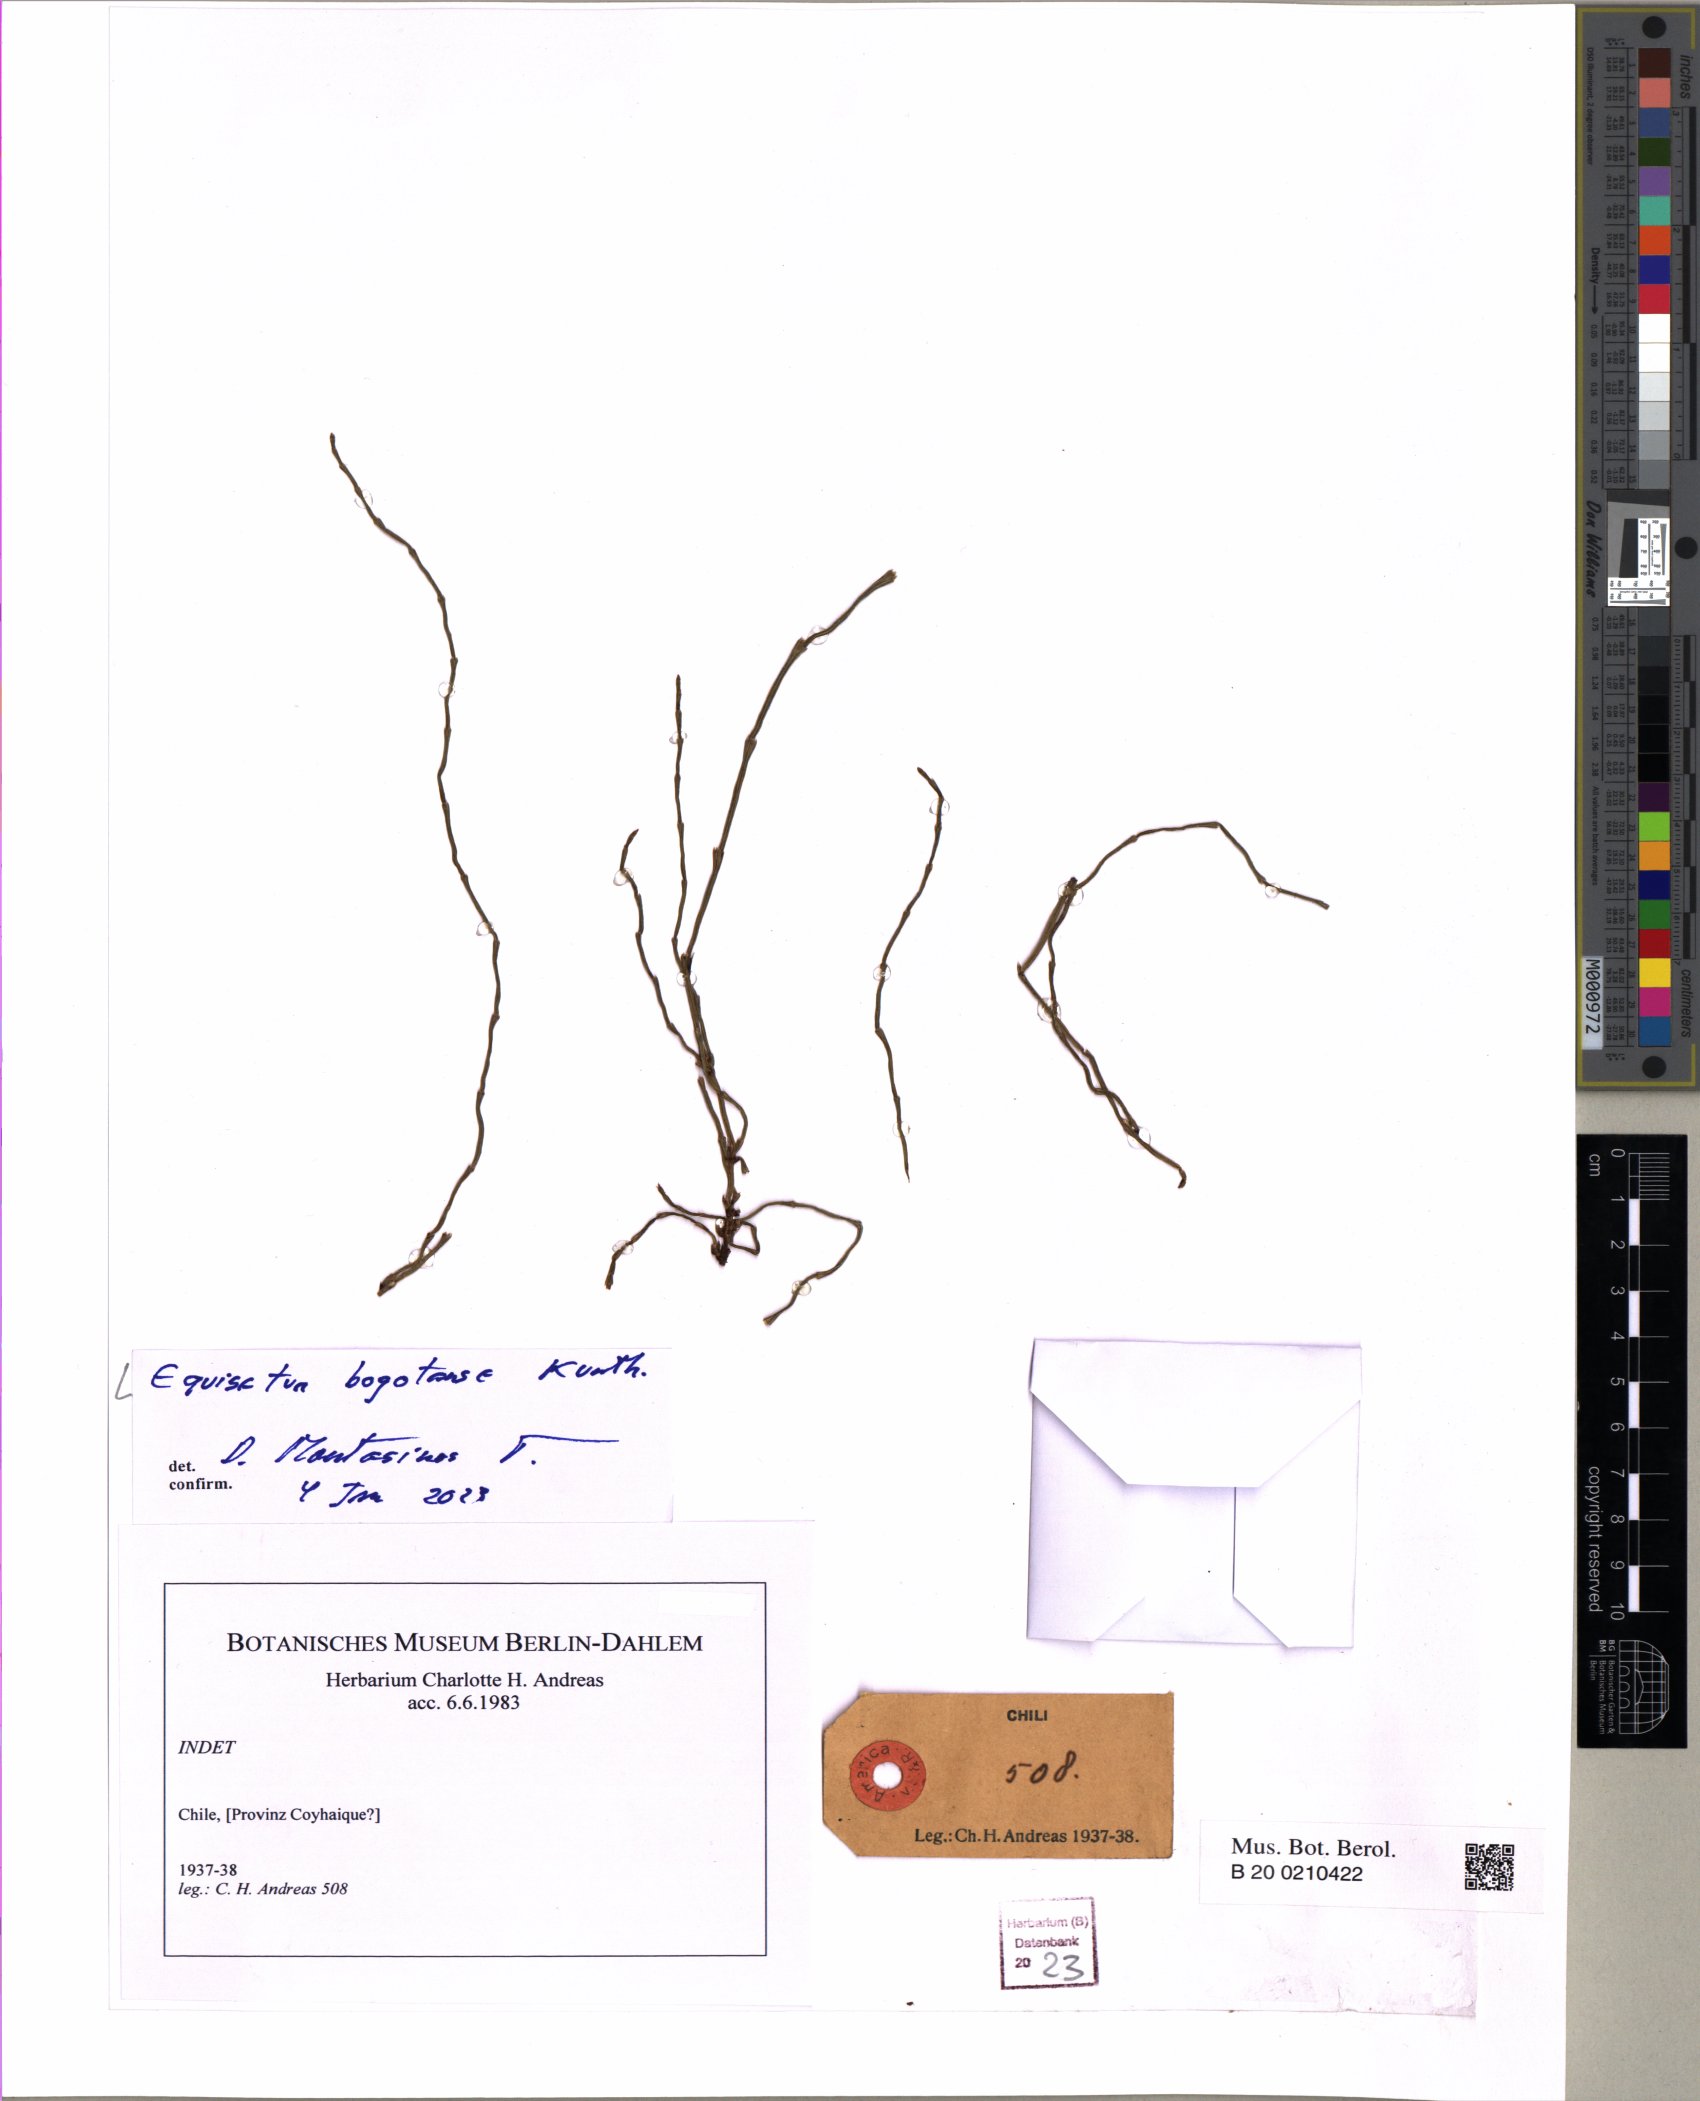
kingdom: Plantae
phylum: Tracheophyta
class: Polypodiopsida
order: Equisetales
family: Equisetaceae
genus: Equisetum
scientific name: Equisetum bogotense
